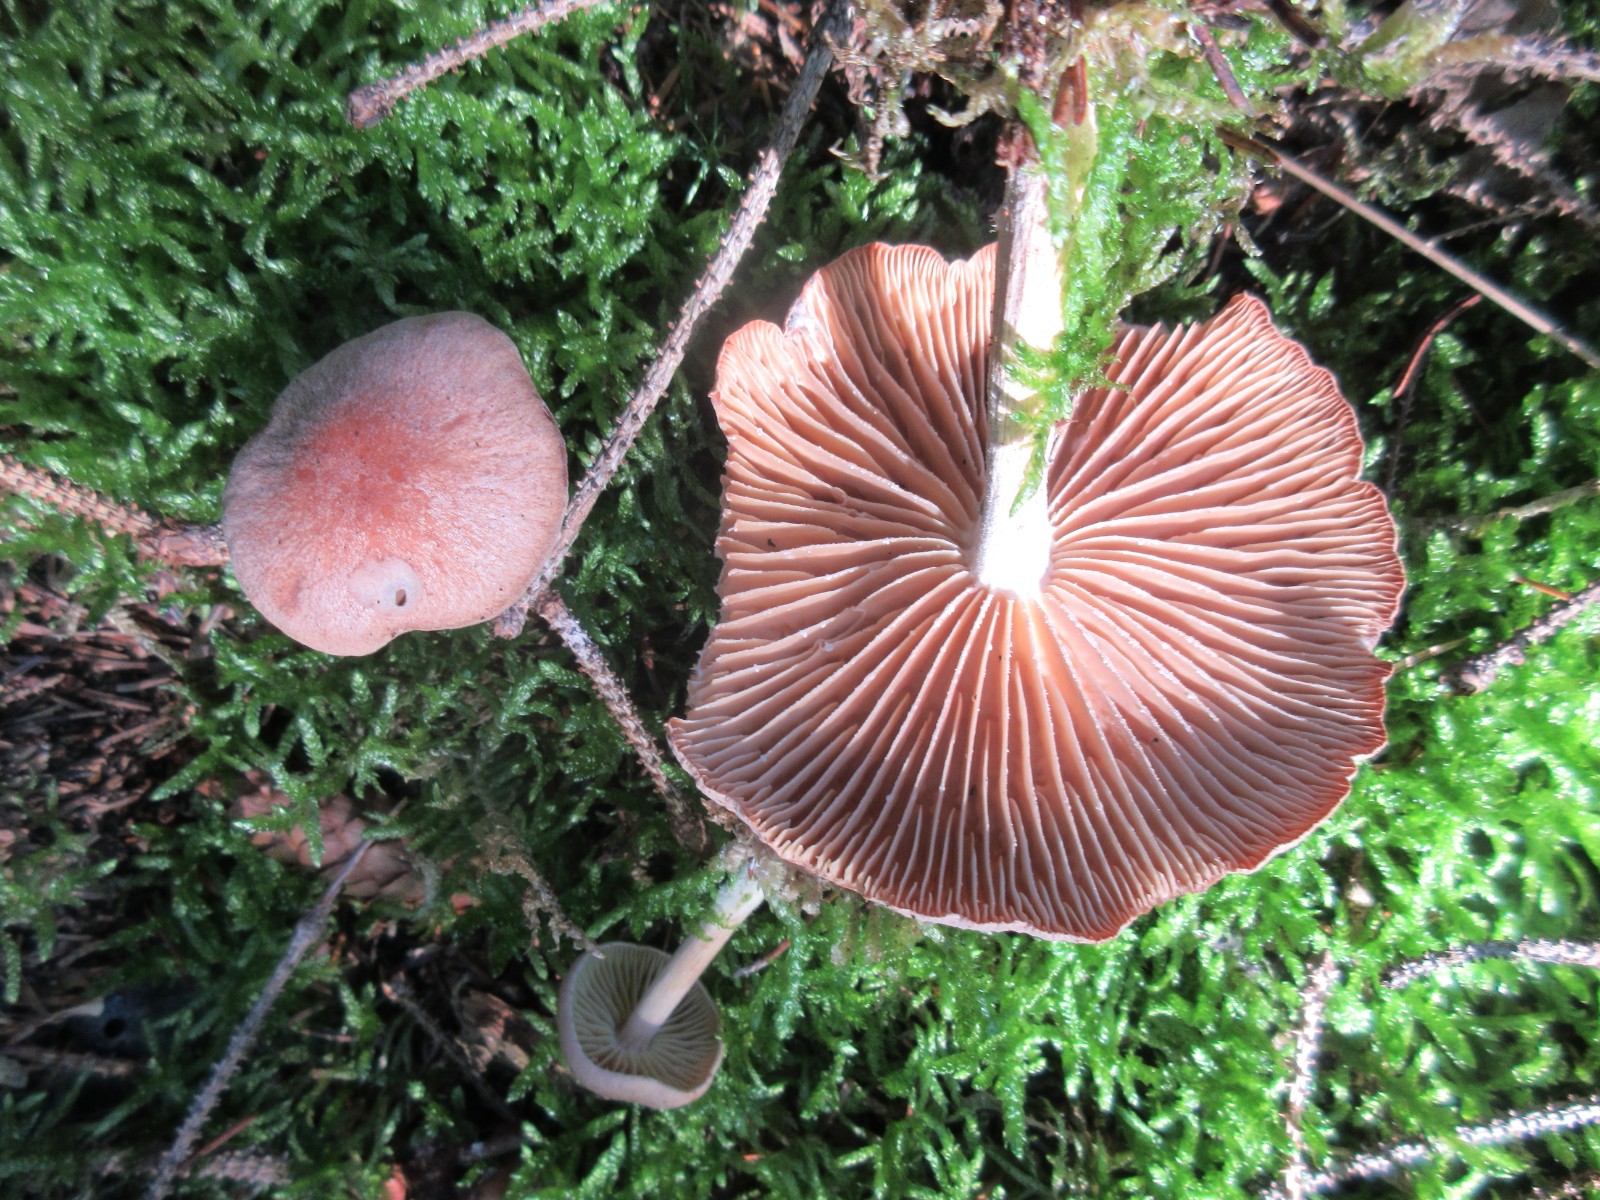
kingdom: Fungi
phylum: Basidiomycota
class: Agaricomycetes
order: Agaricales
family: Omphalotaceae
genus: Collybiopsis
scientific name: Collybiopsis peronata
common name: bestøvlet fladhat
